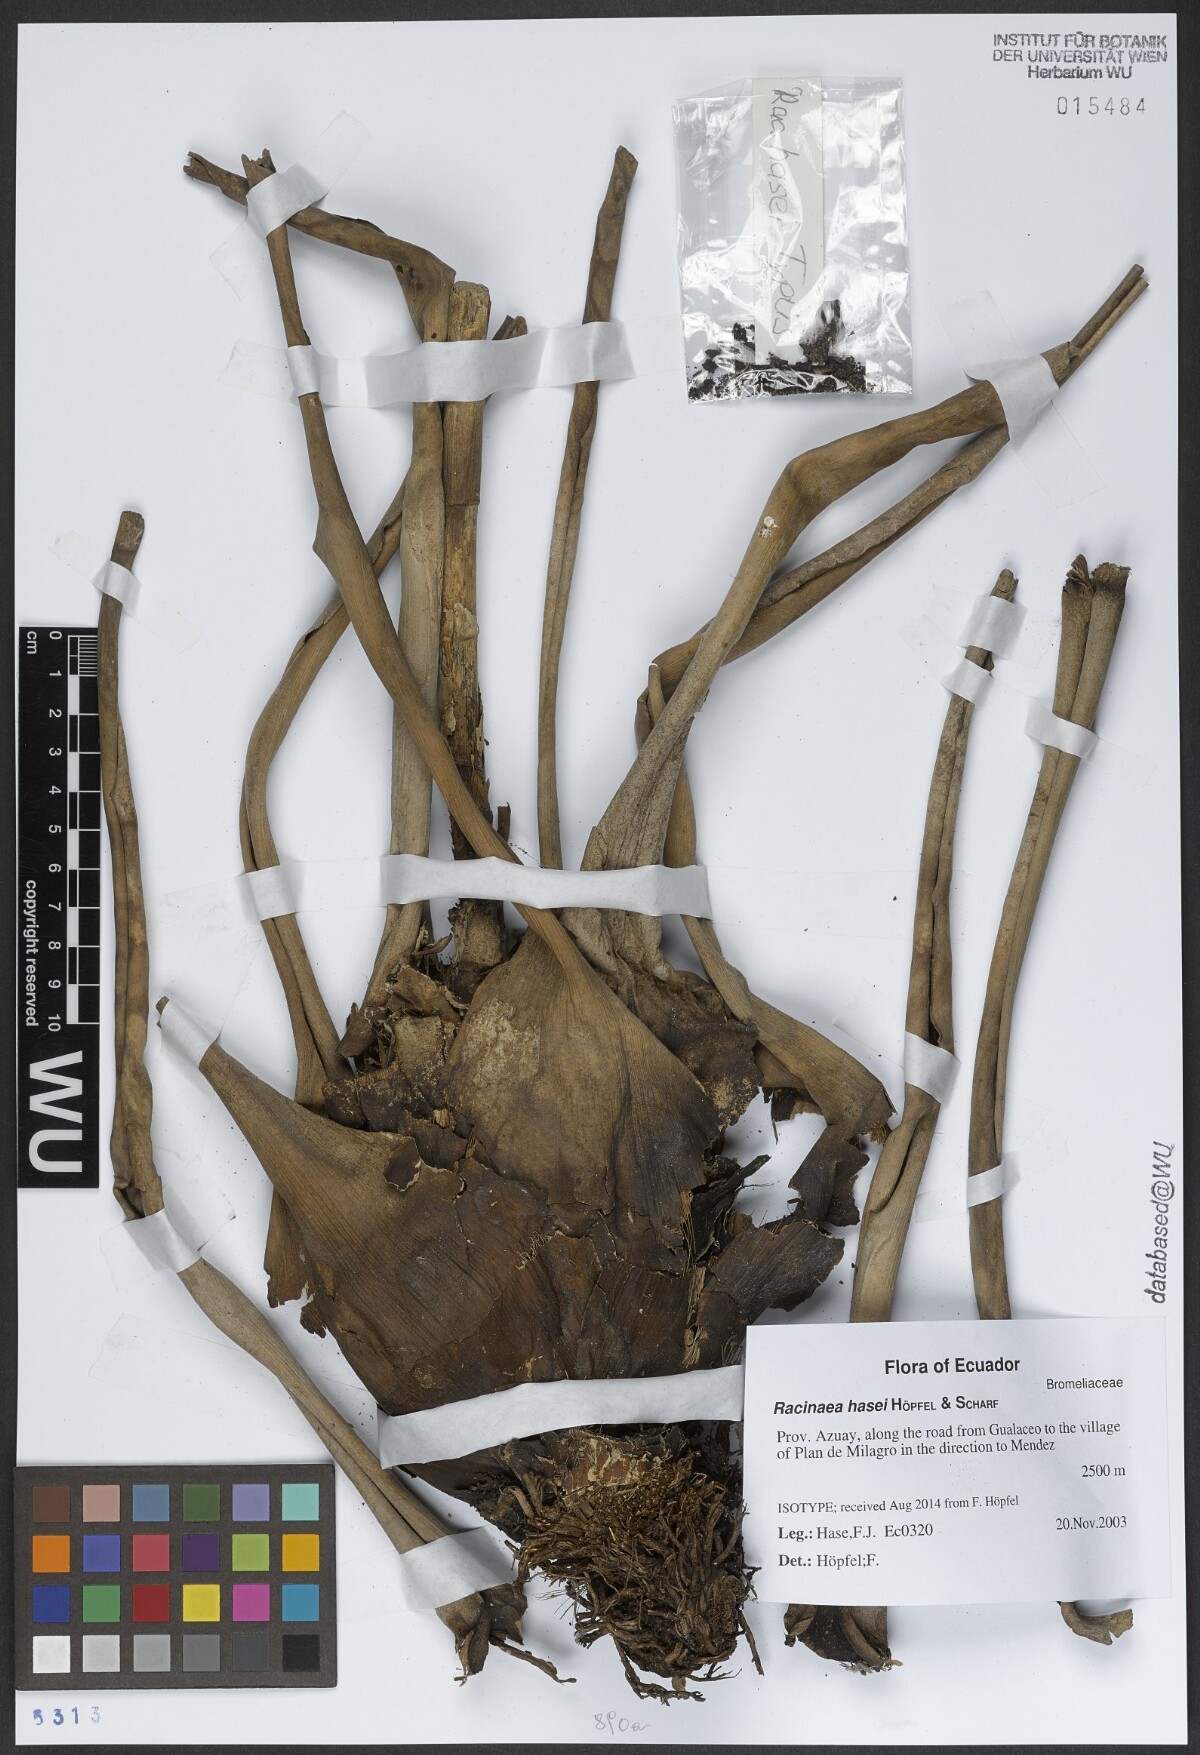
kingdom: Plantae
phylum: Tracheophyta
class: Liliopsida
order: Poales
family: Bromeliaceae
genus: Racinaea
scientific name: Racinaea hasei
